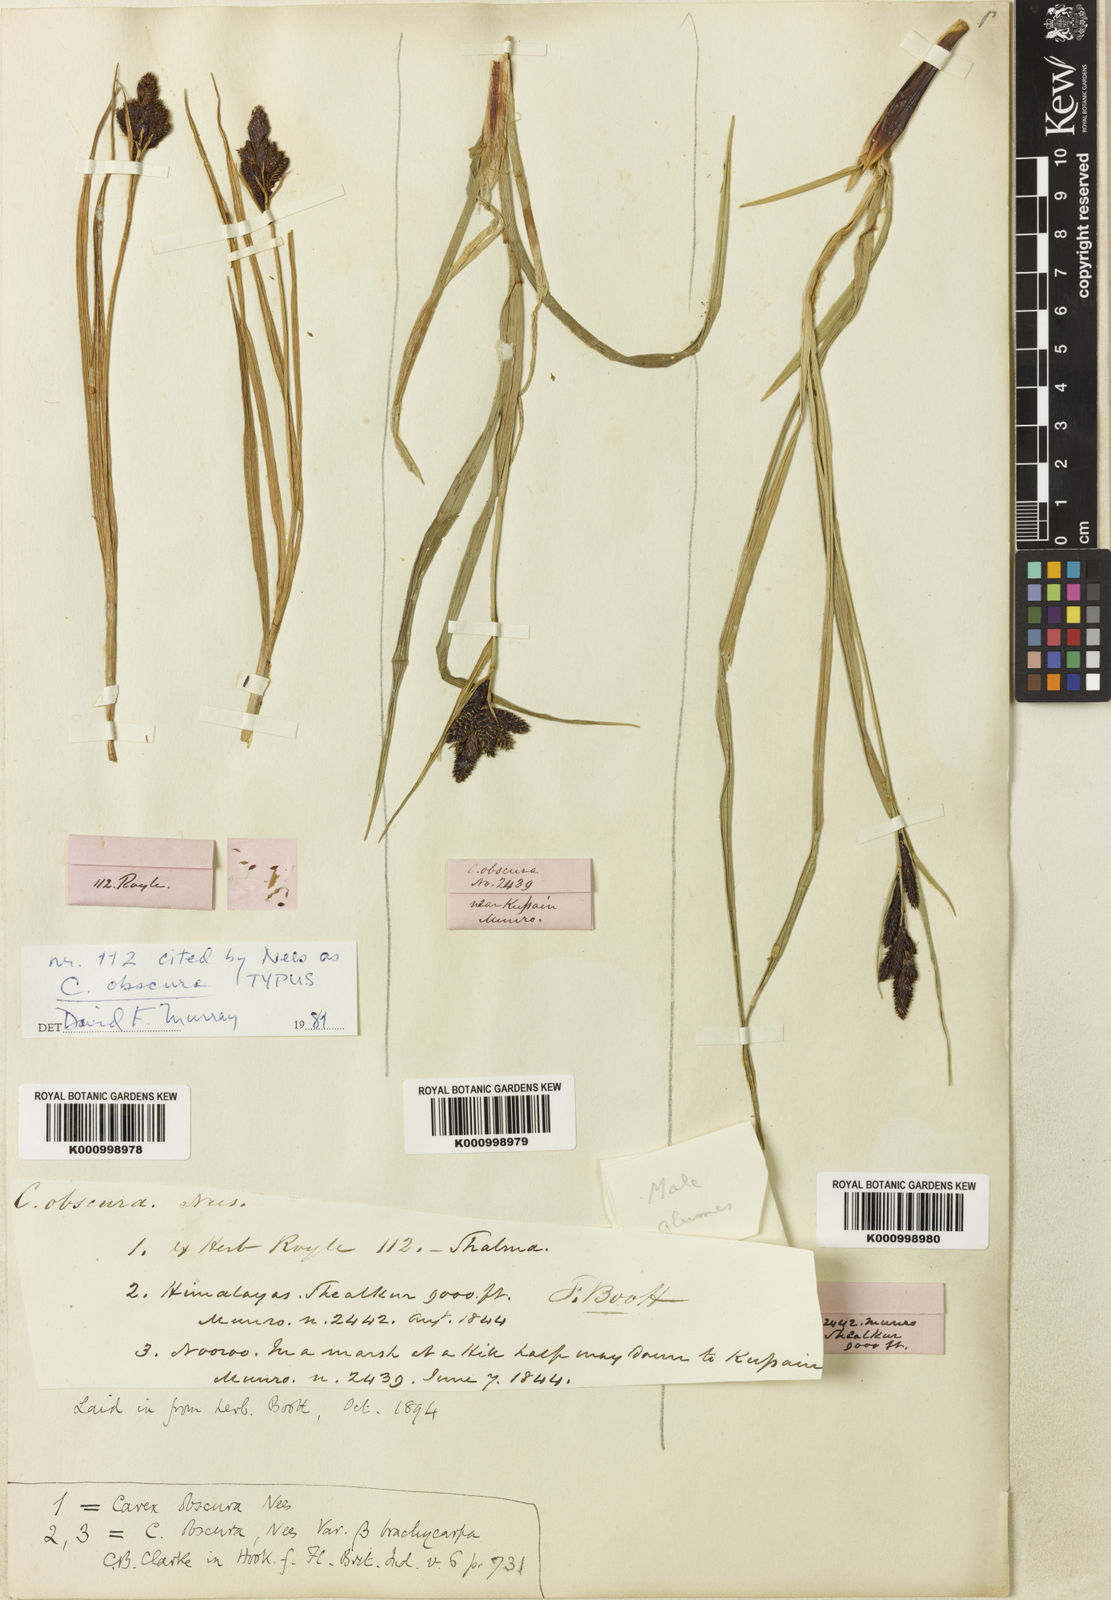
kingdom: Plantae
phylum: Tracheophyta
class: Liliopsida
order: Poales
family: Cyperaceae
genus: Carex
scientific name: Carex obscura
